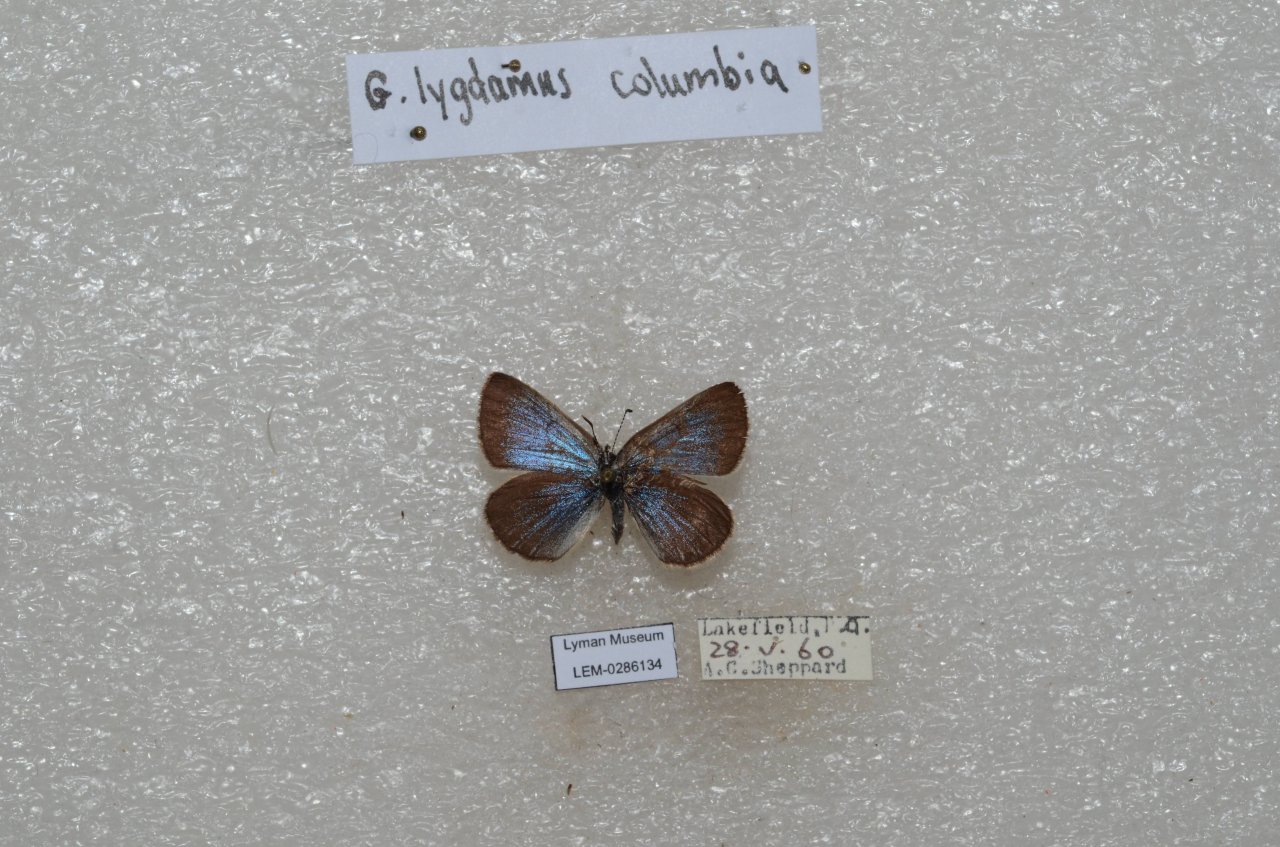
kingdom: Animalia
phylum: Arthropoda
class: Insecta
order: Lepidoptera
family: Lycaenidae
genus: Glaucopsyche
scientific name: Glaucopsyche lygdamus
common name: Silvery Blue
